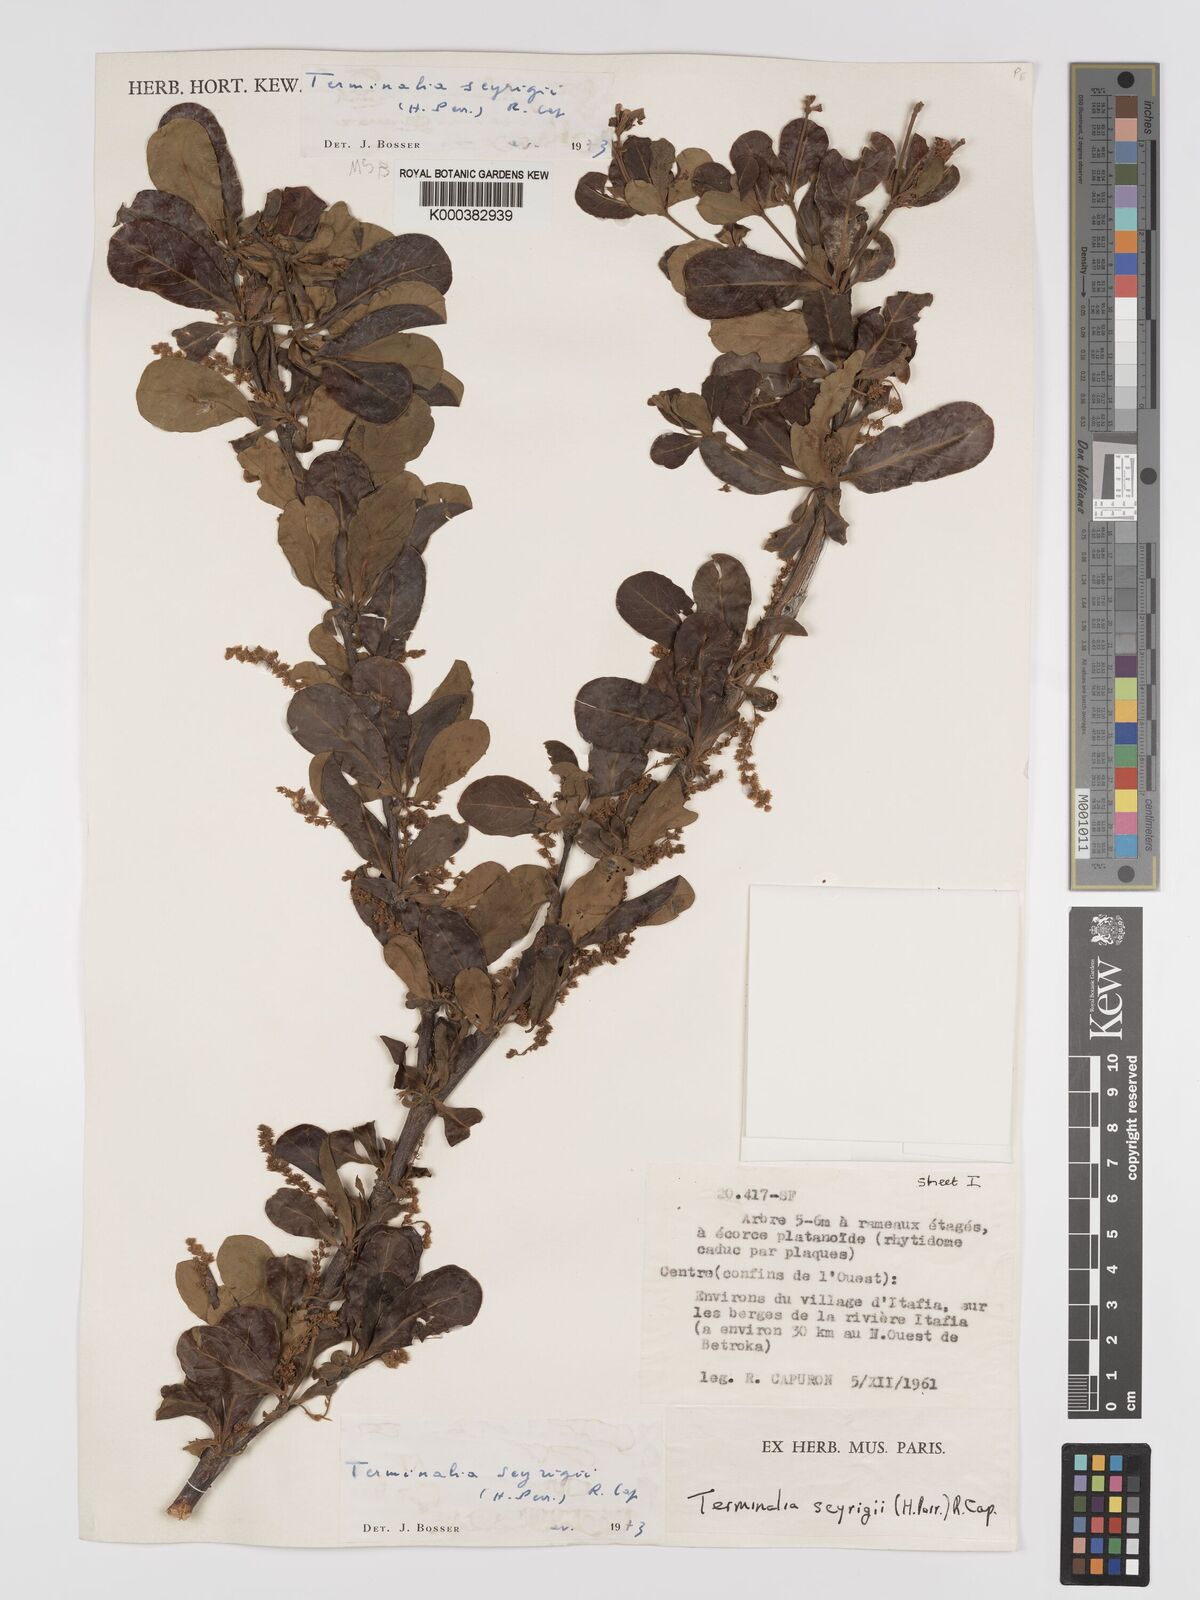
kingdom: Plantae
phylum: Tracheophyta
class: Magnoliopsida
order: Myrtales
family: Combretaceae
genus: Terminalia
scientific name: Terminalia seyrigii
